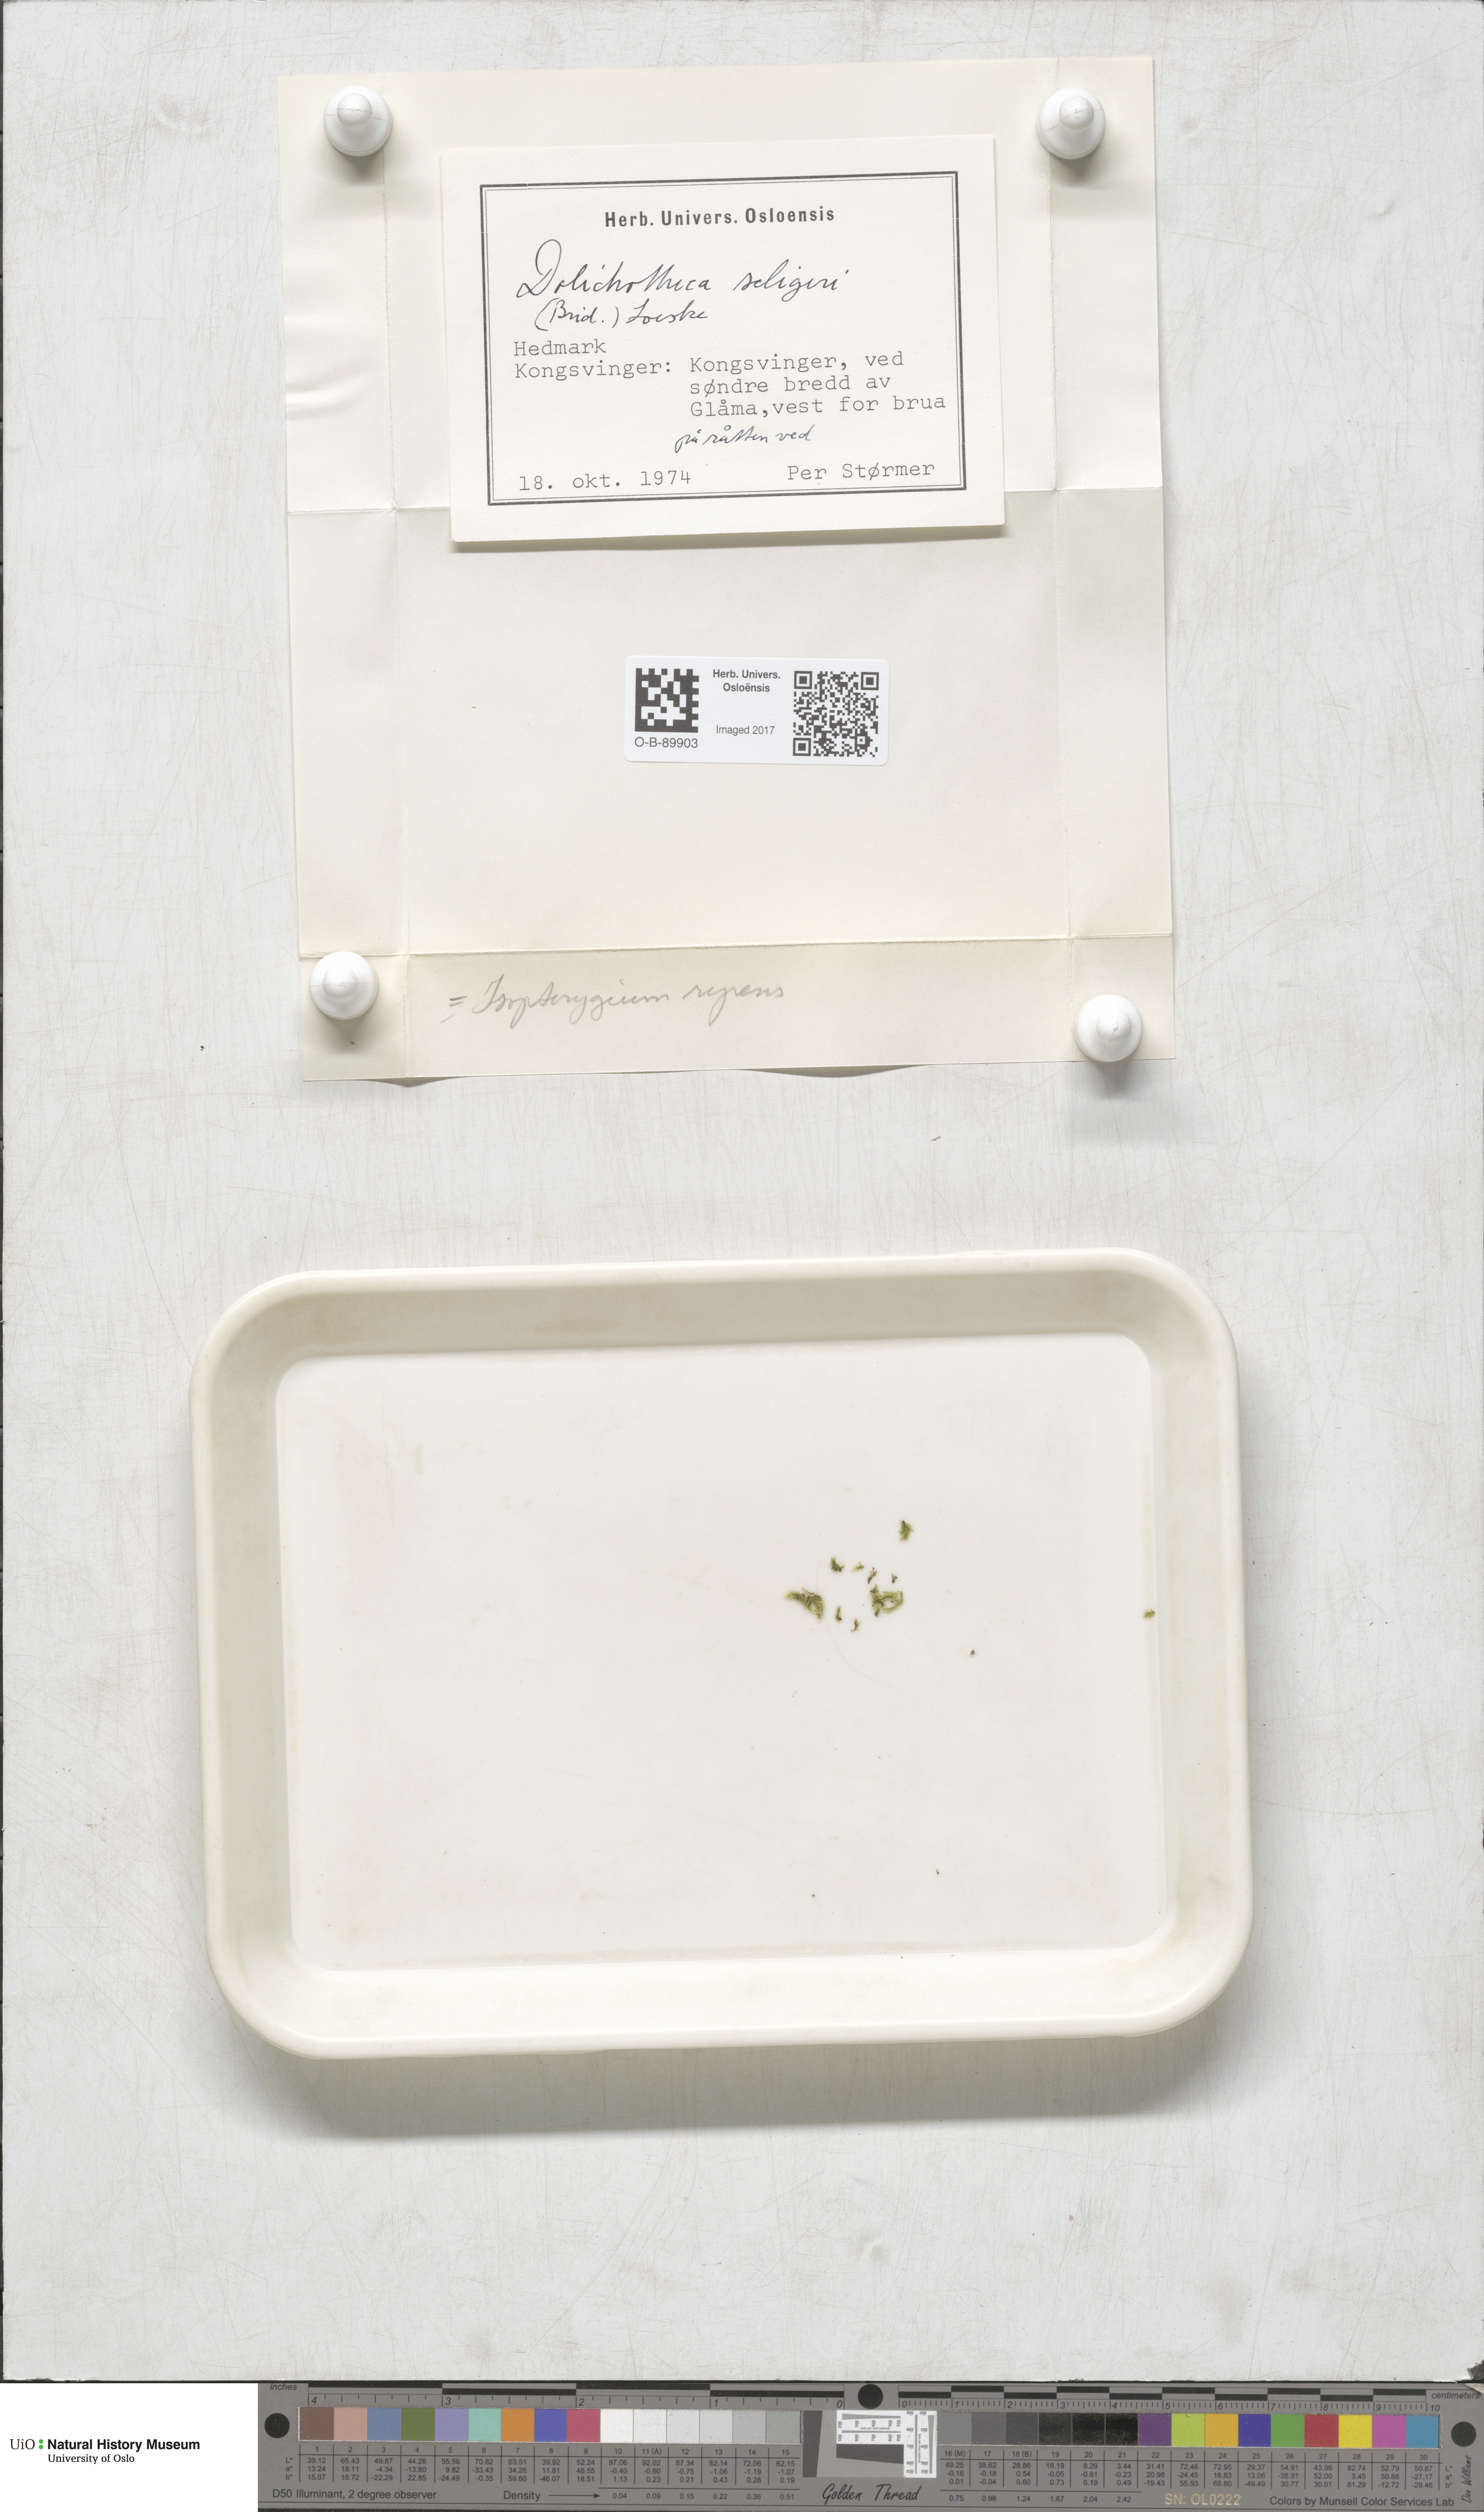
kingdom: Plantae
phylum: Bryophyta
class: Bryopsida
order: Hypnales
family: Plagiotheciaceae
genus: Herzogiella
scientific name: Herzogiella seligeri
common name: Silesian feather-moss
